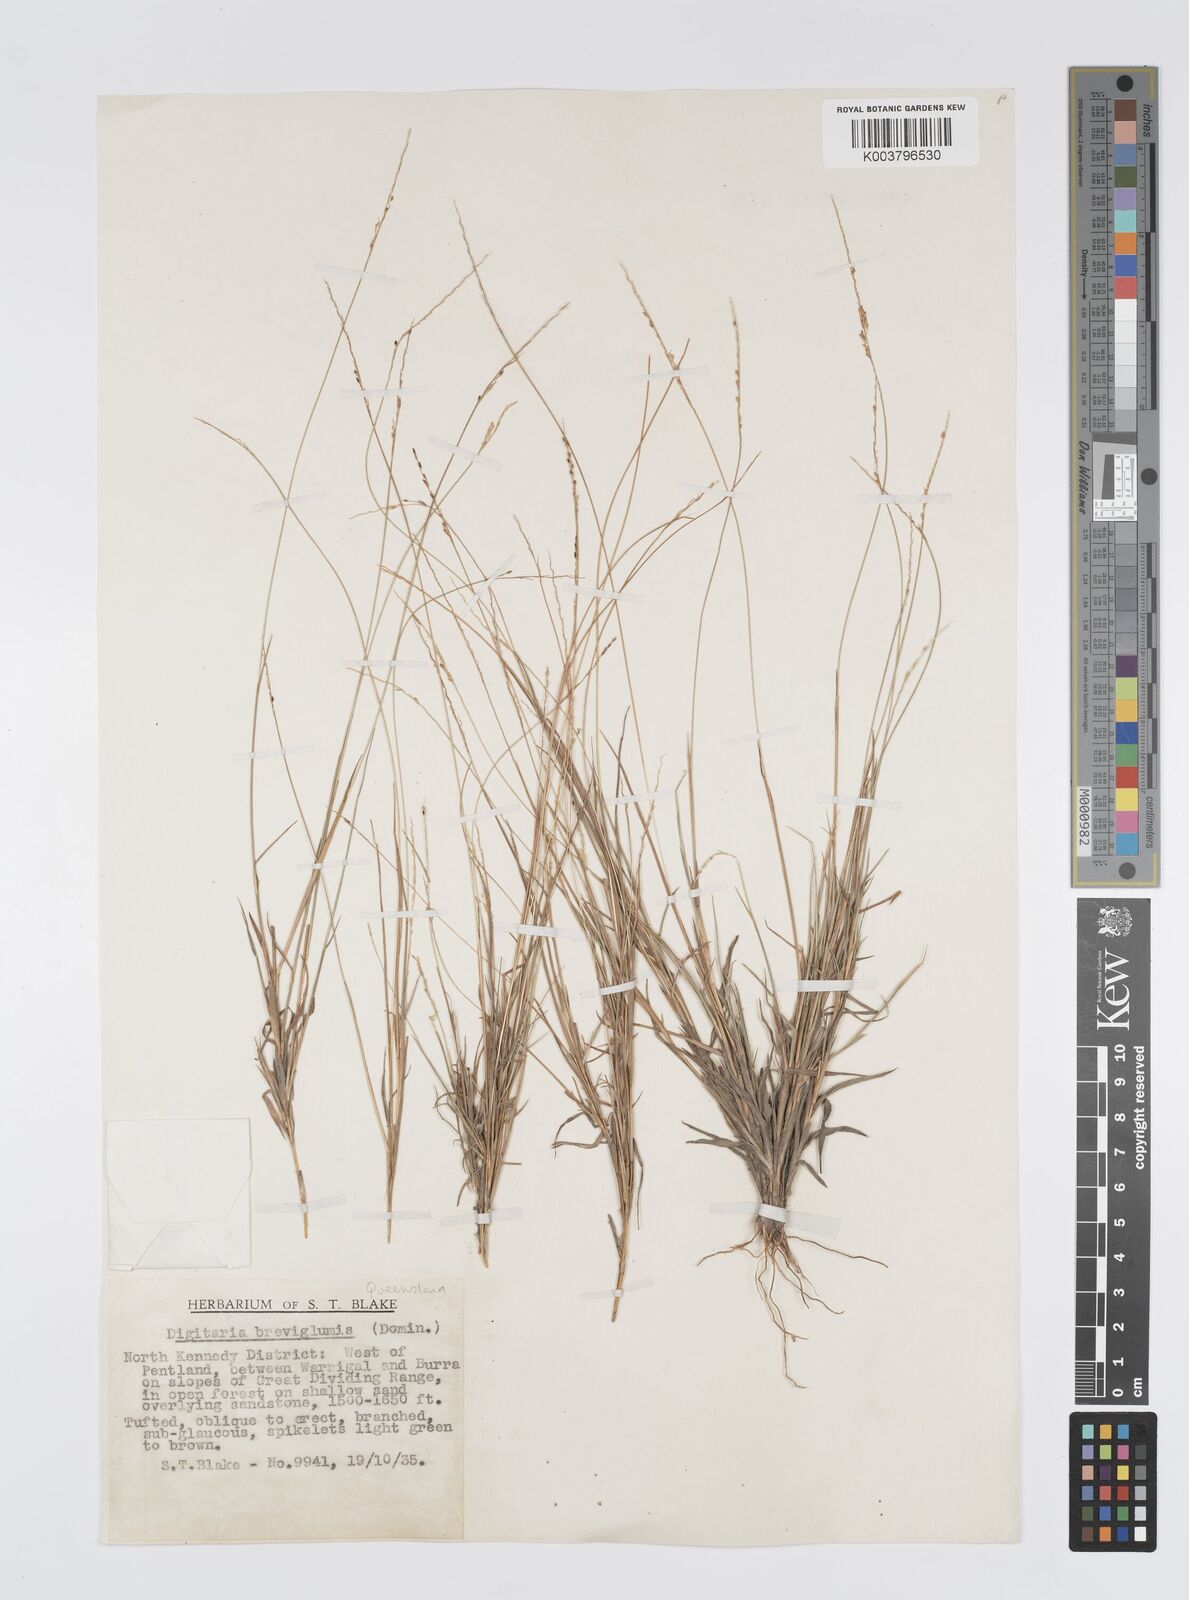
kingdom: Plantae
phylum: Tracheophyta
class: Liliopsida
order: Poales
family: Poaceae
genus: Digitaria
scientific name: Digitaria breviglumis
